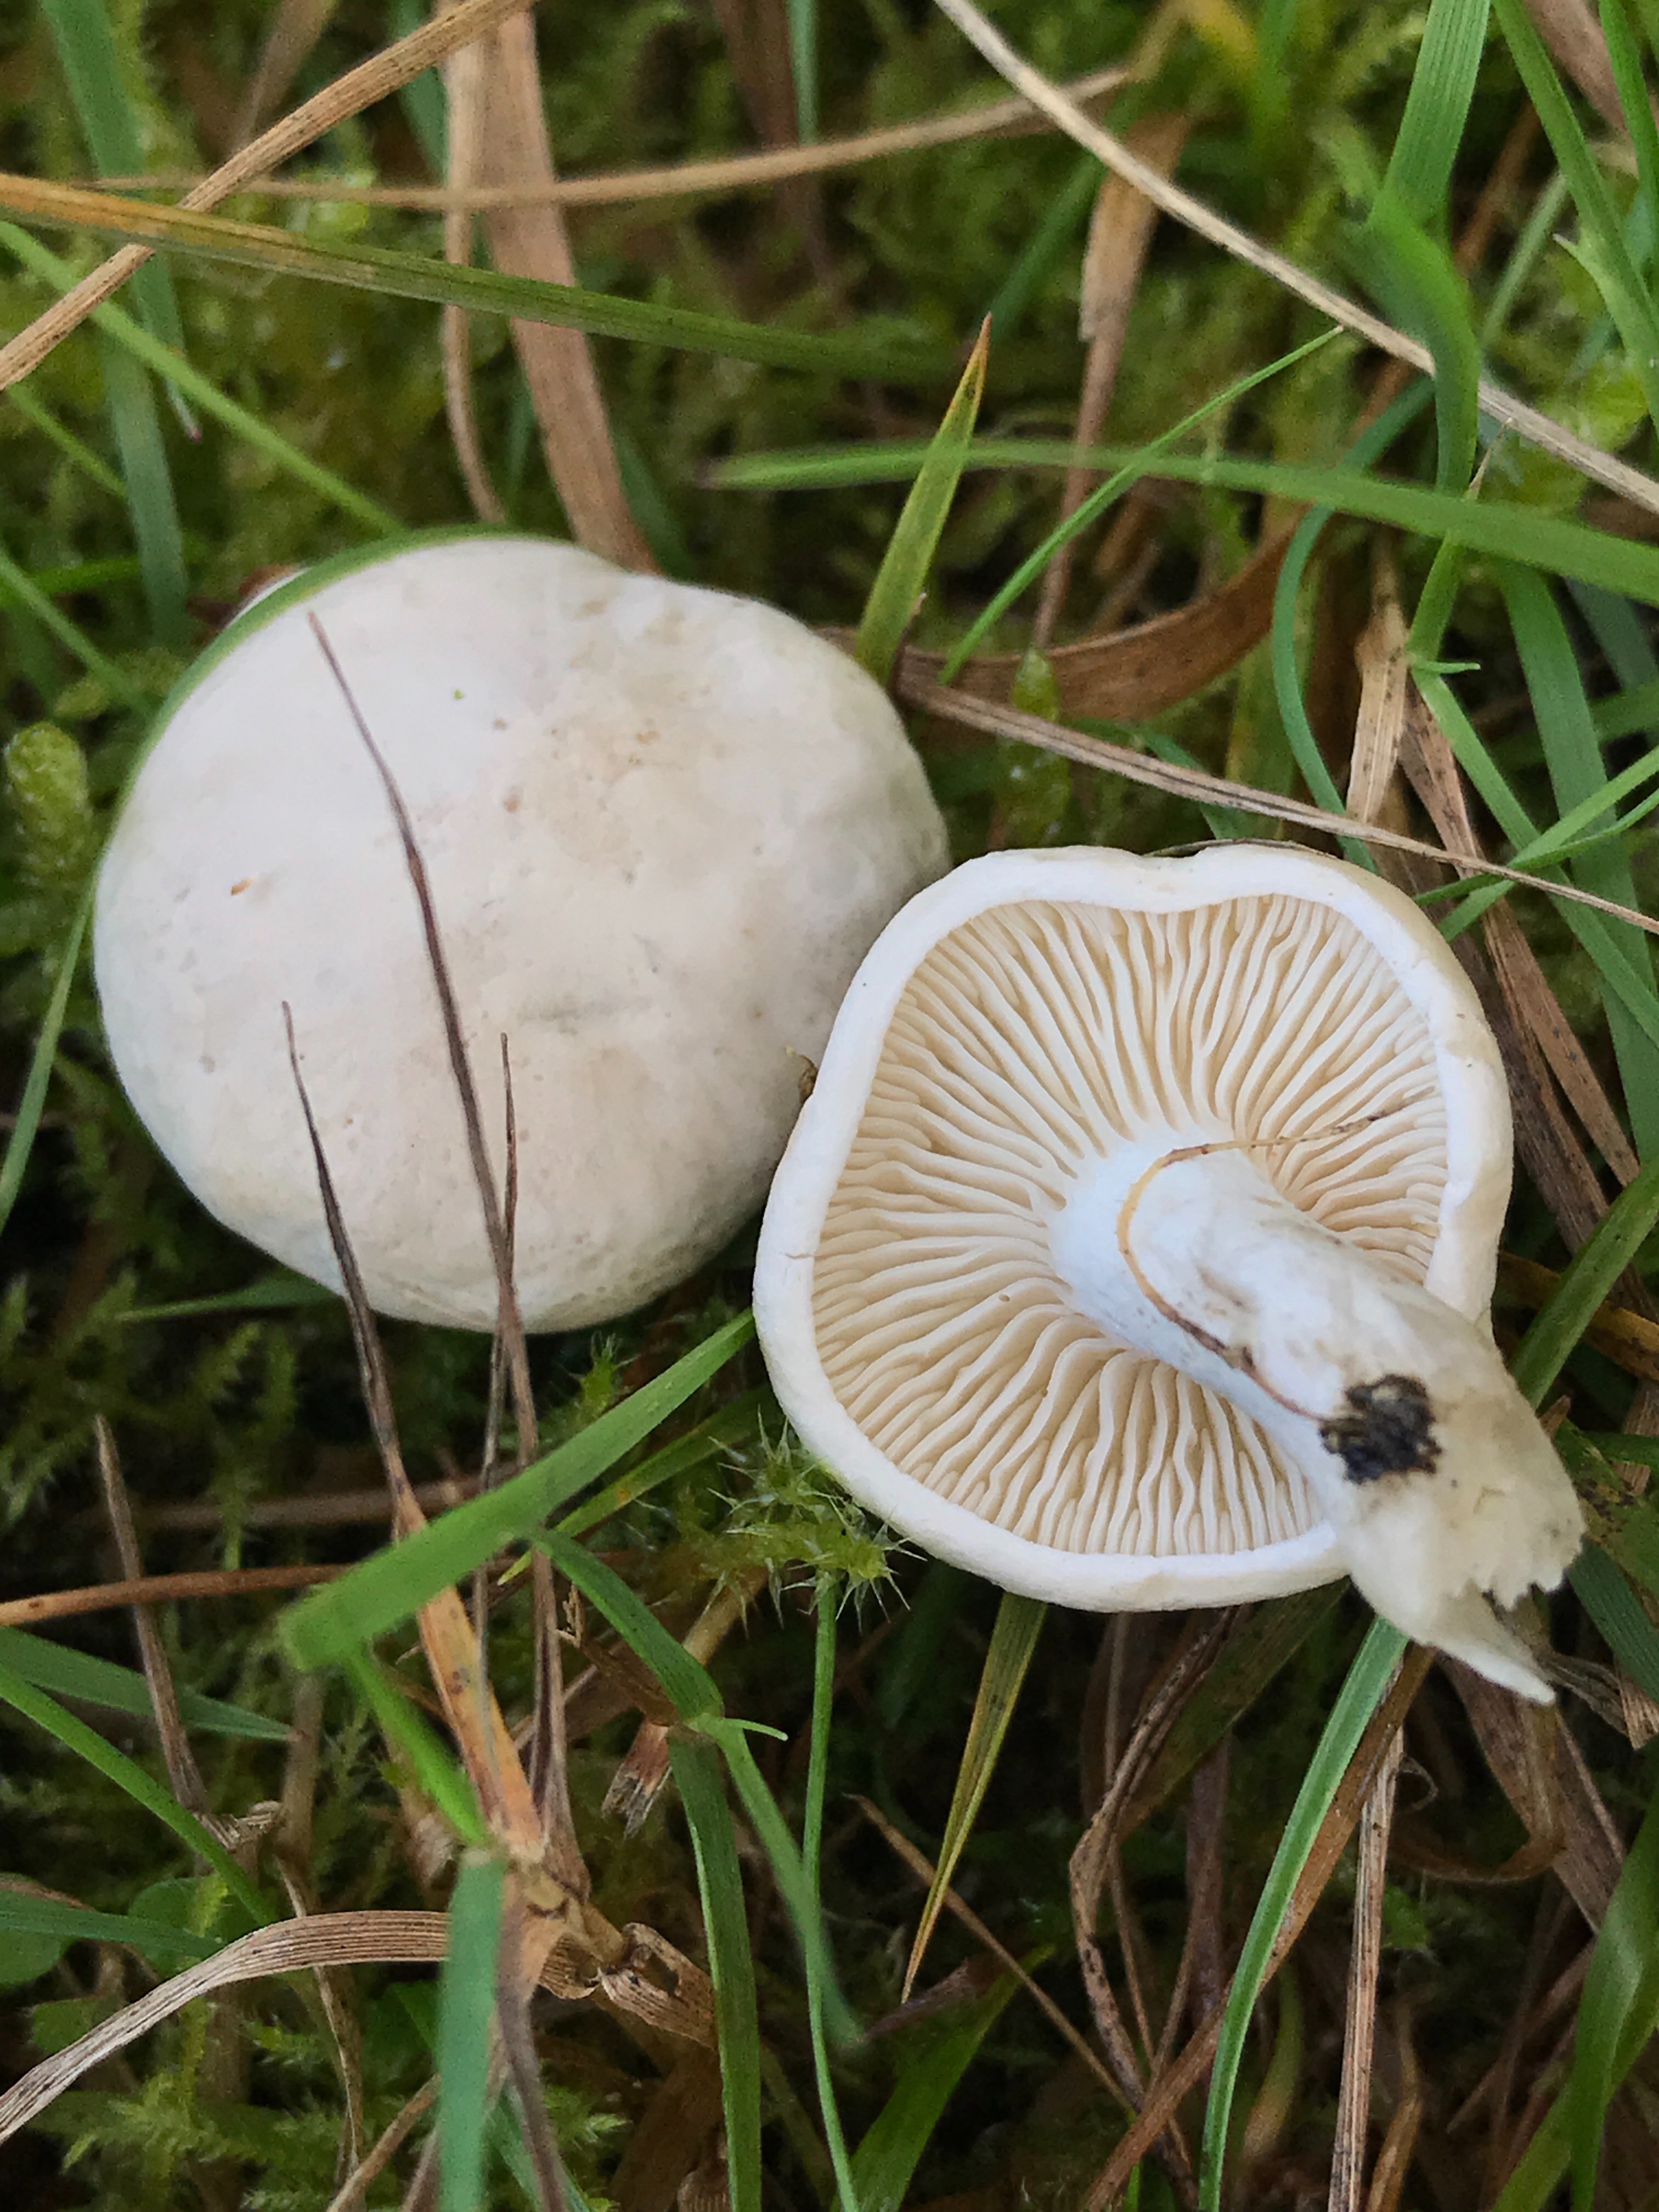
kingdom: Fungi
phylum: Basidiomycota
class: Agaricomycetes
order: Agaricales
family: Entolomataceae
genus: Clitopilus
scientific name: Clitopilus prunulus
